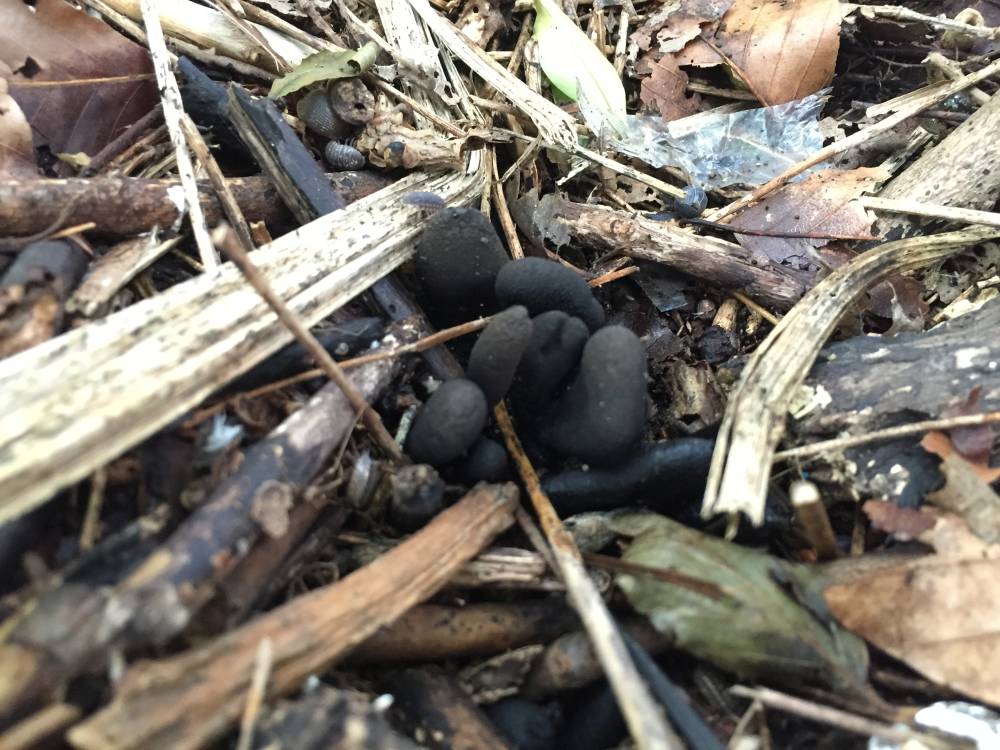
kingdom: Fungi
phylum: Ascomycota
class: Sordariomycetes
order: Xylariales
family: Xylariaceae
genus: Xylaria
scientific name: Xylaria polymorpha
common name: kølle-stødsvamp
